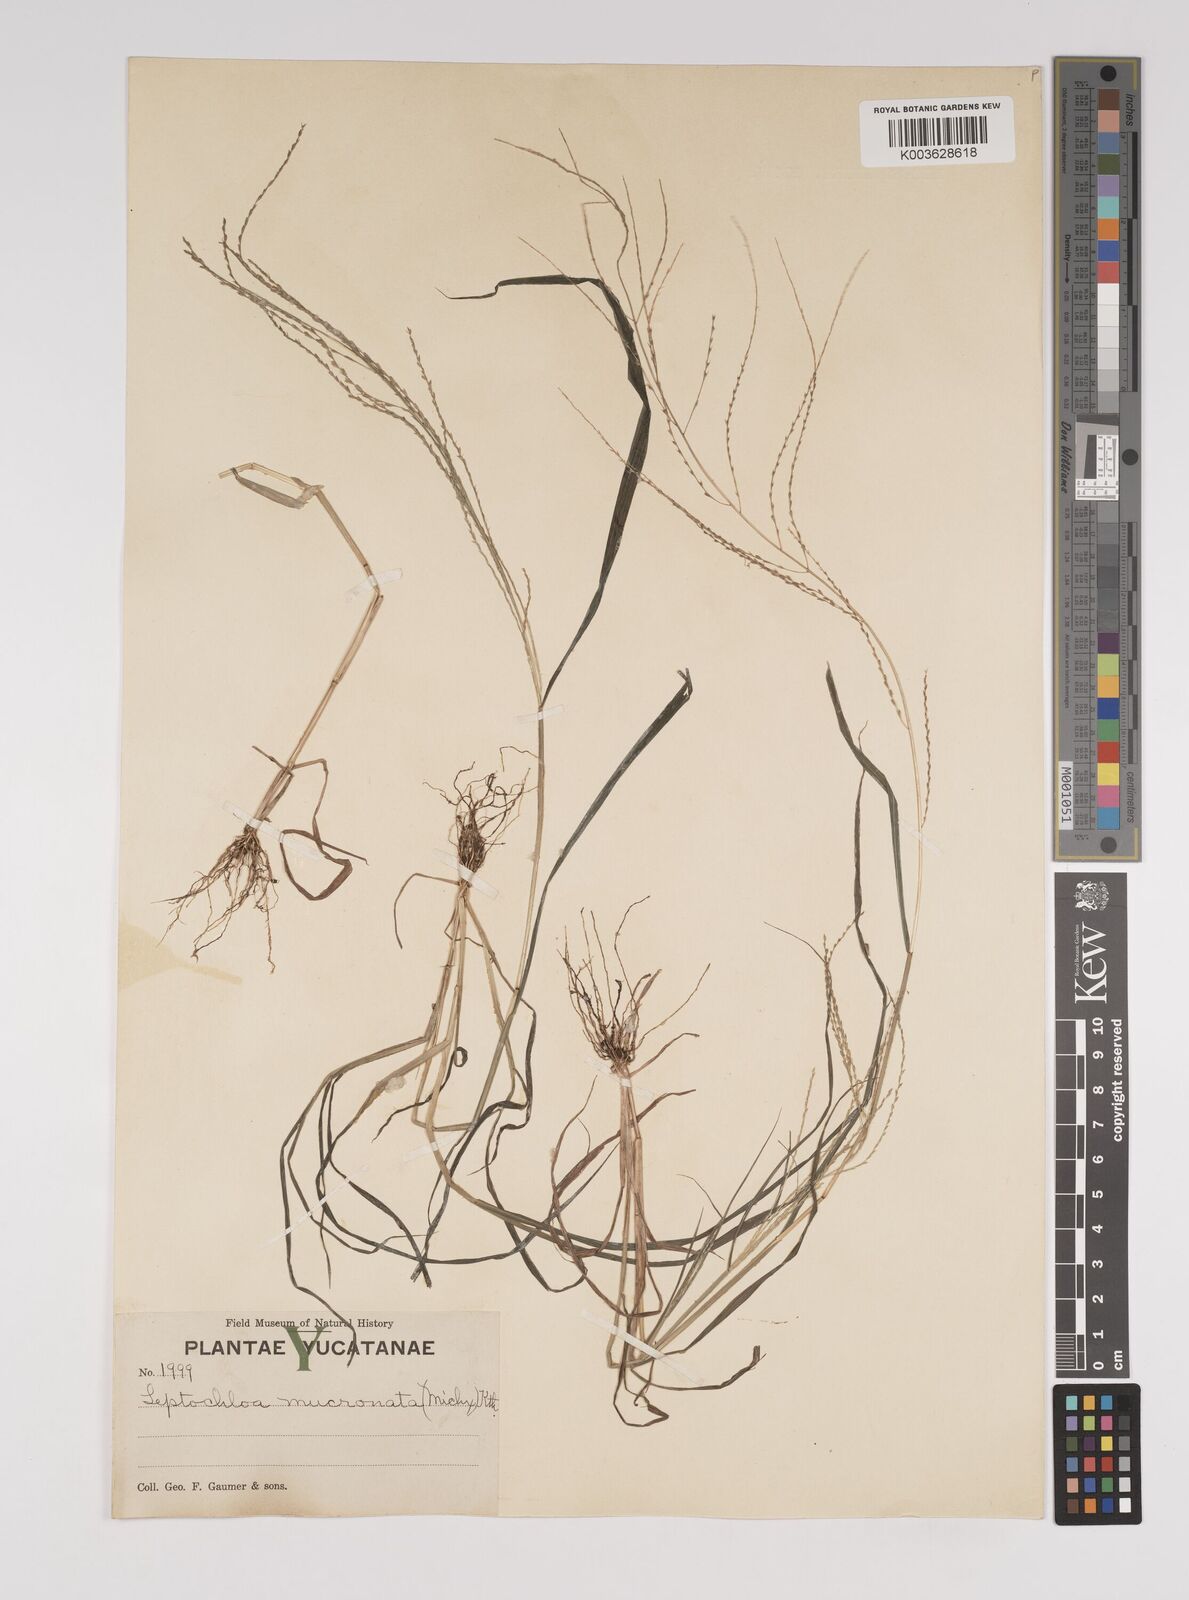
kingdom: Plantae
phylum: Tracheophyta
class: Liliopsida
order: Poales
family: Poaceae
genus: Leptochloa
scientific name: Leptochloa panicea
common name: Mucronate sprangletop
